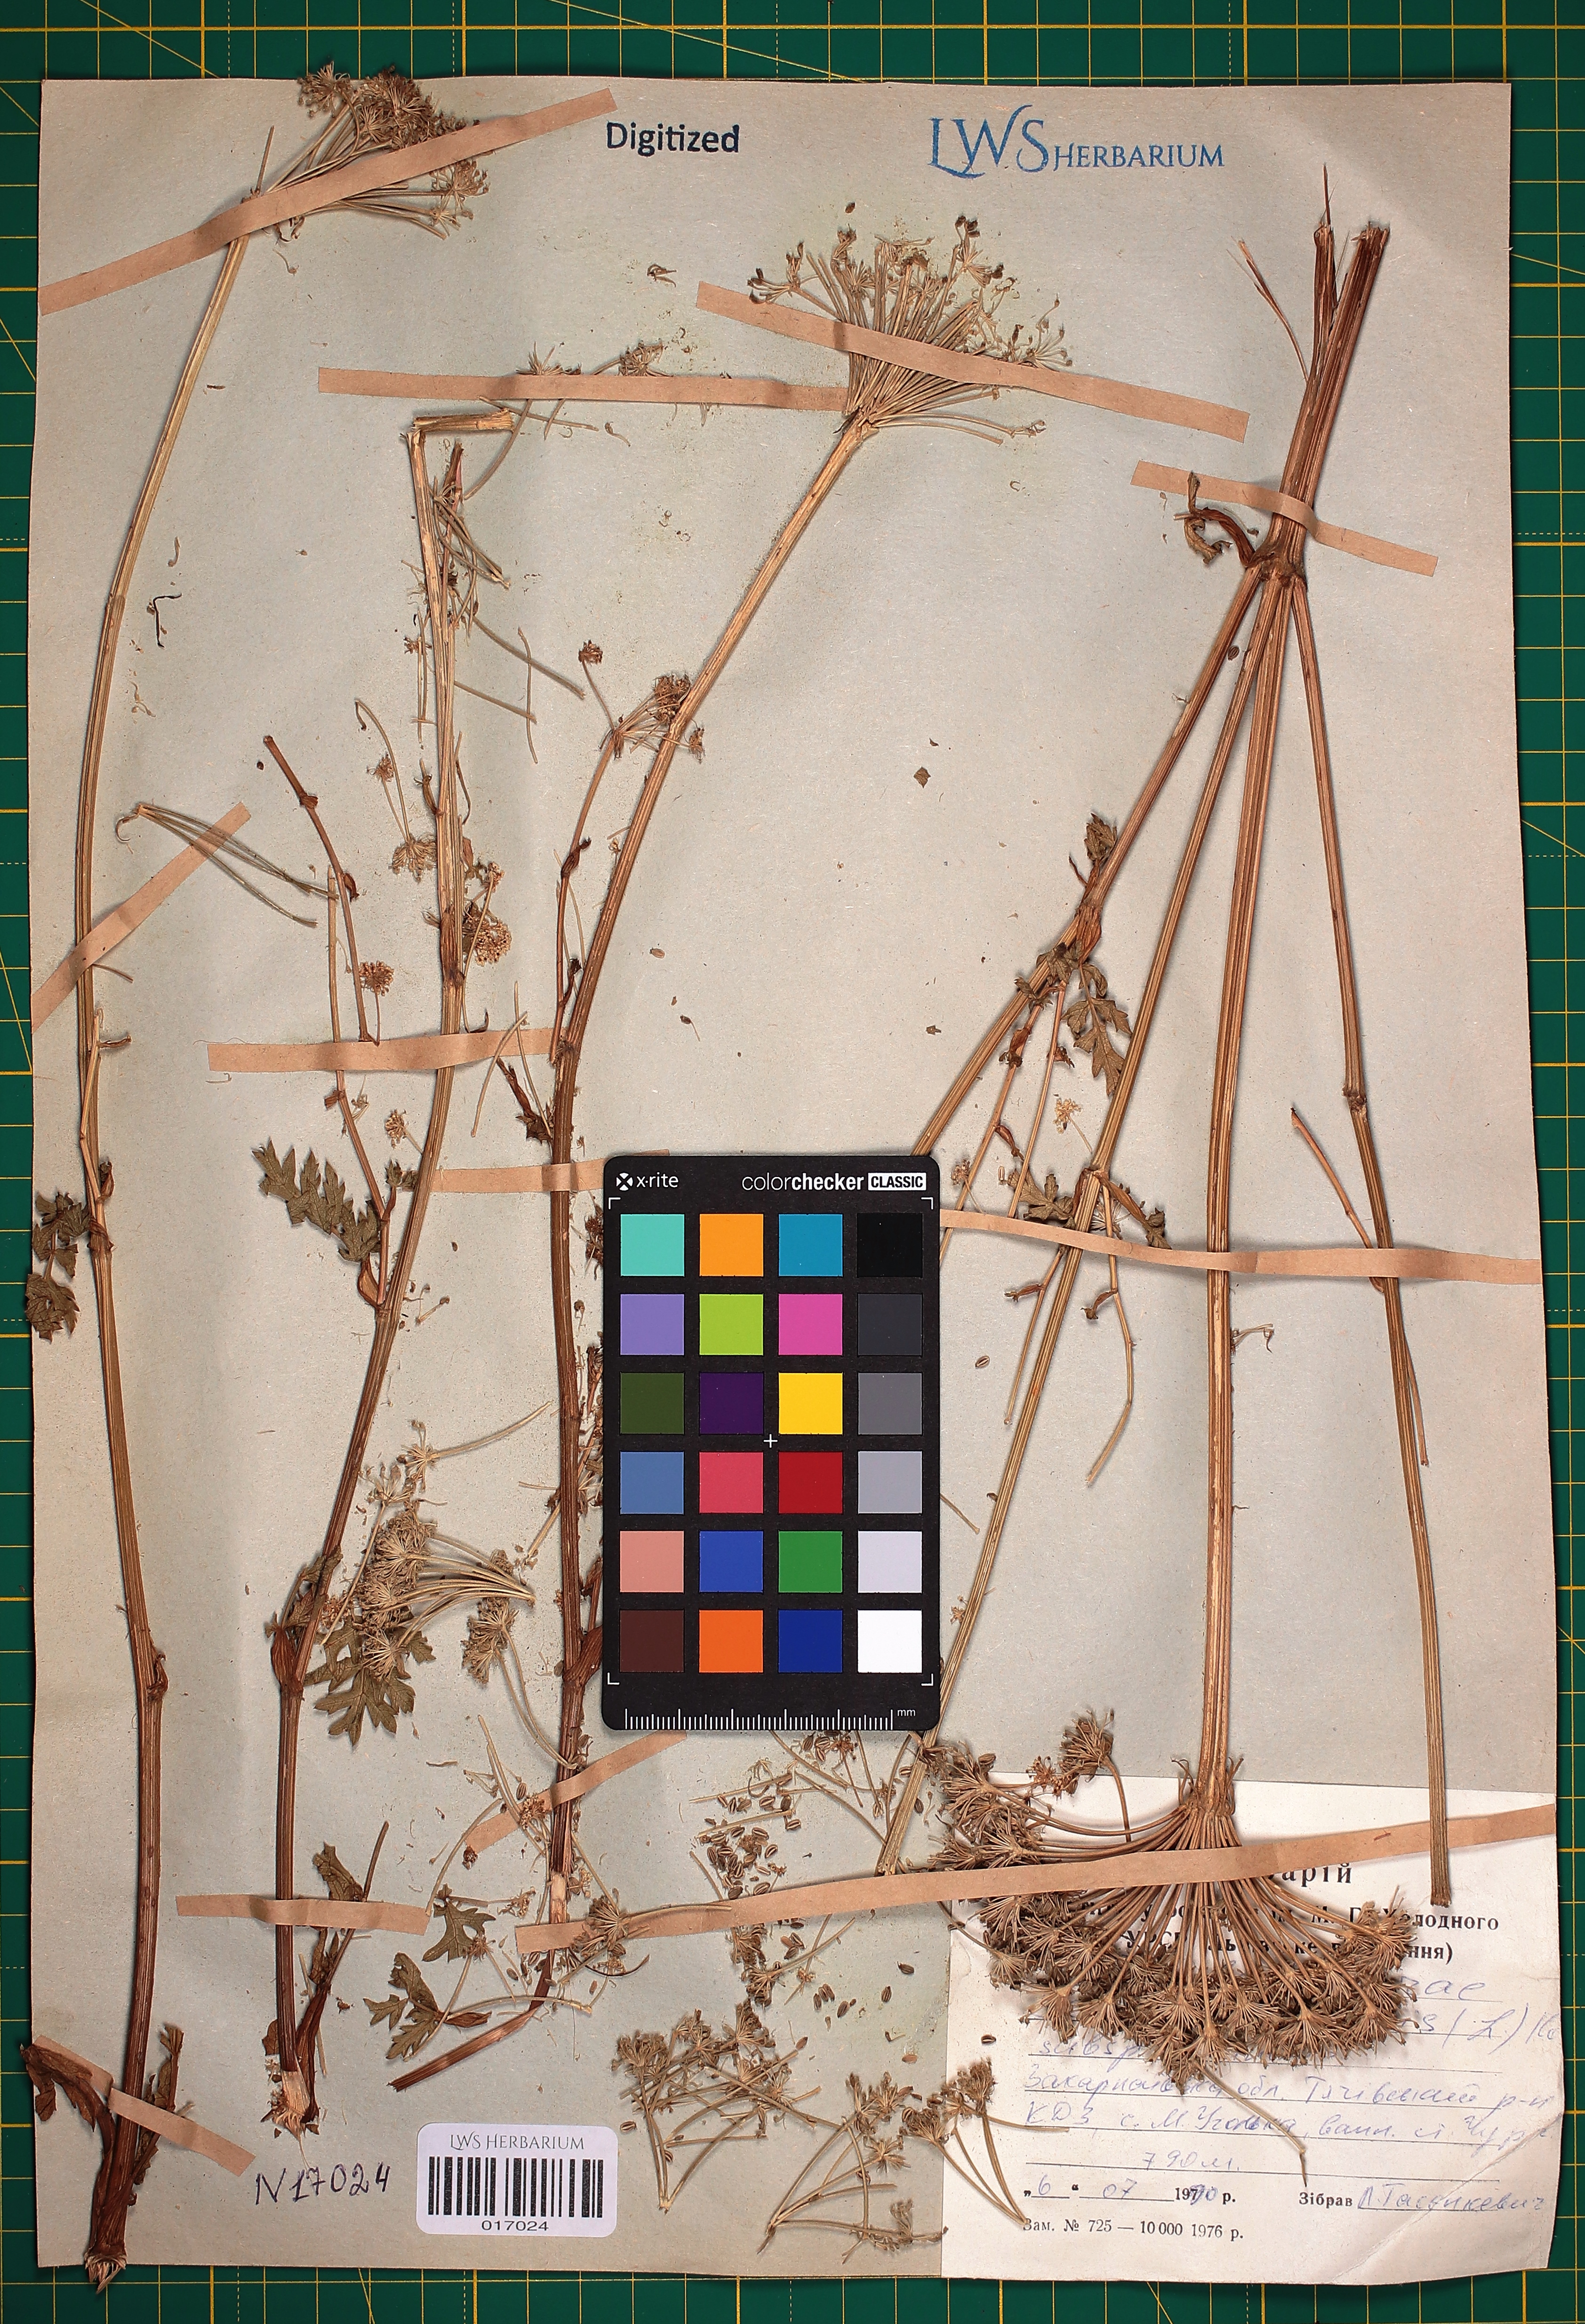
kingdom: Plantae
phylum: Tracheophyta
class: Magnoliopsida
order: Apiales
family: Apiaceae
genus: Seseli
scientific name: Seseli libanotis
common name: Mooncarrot
